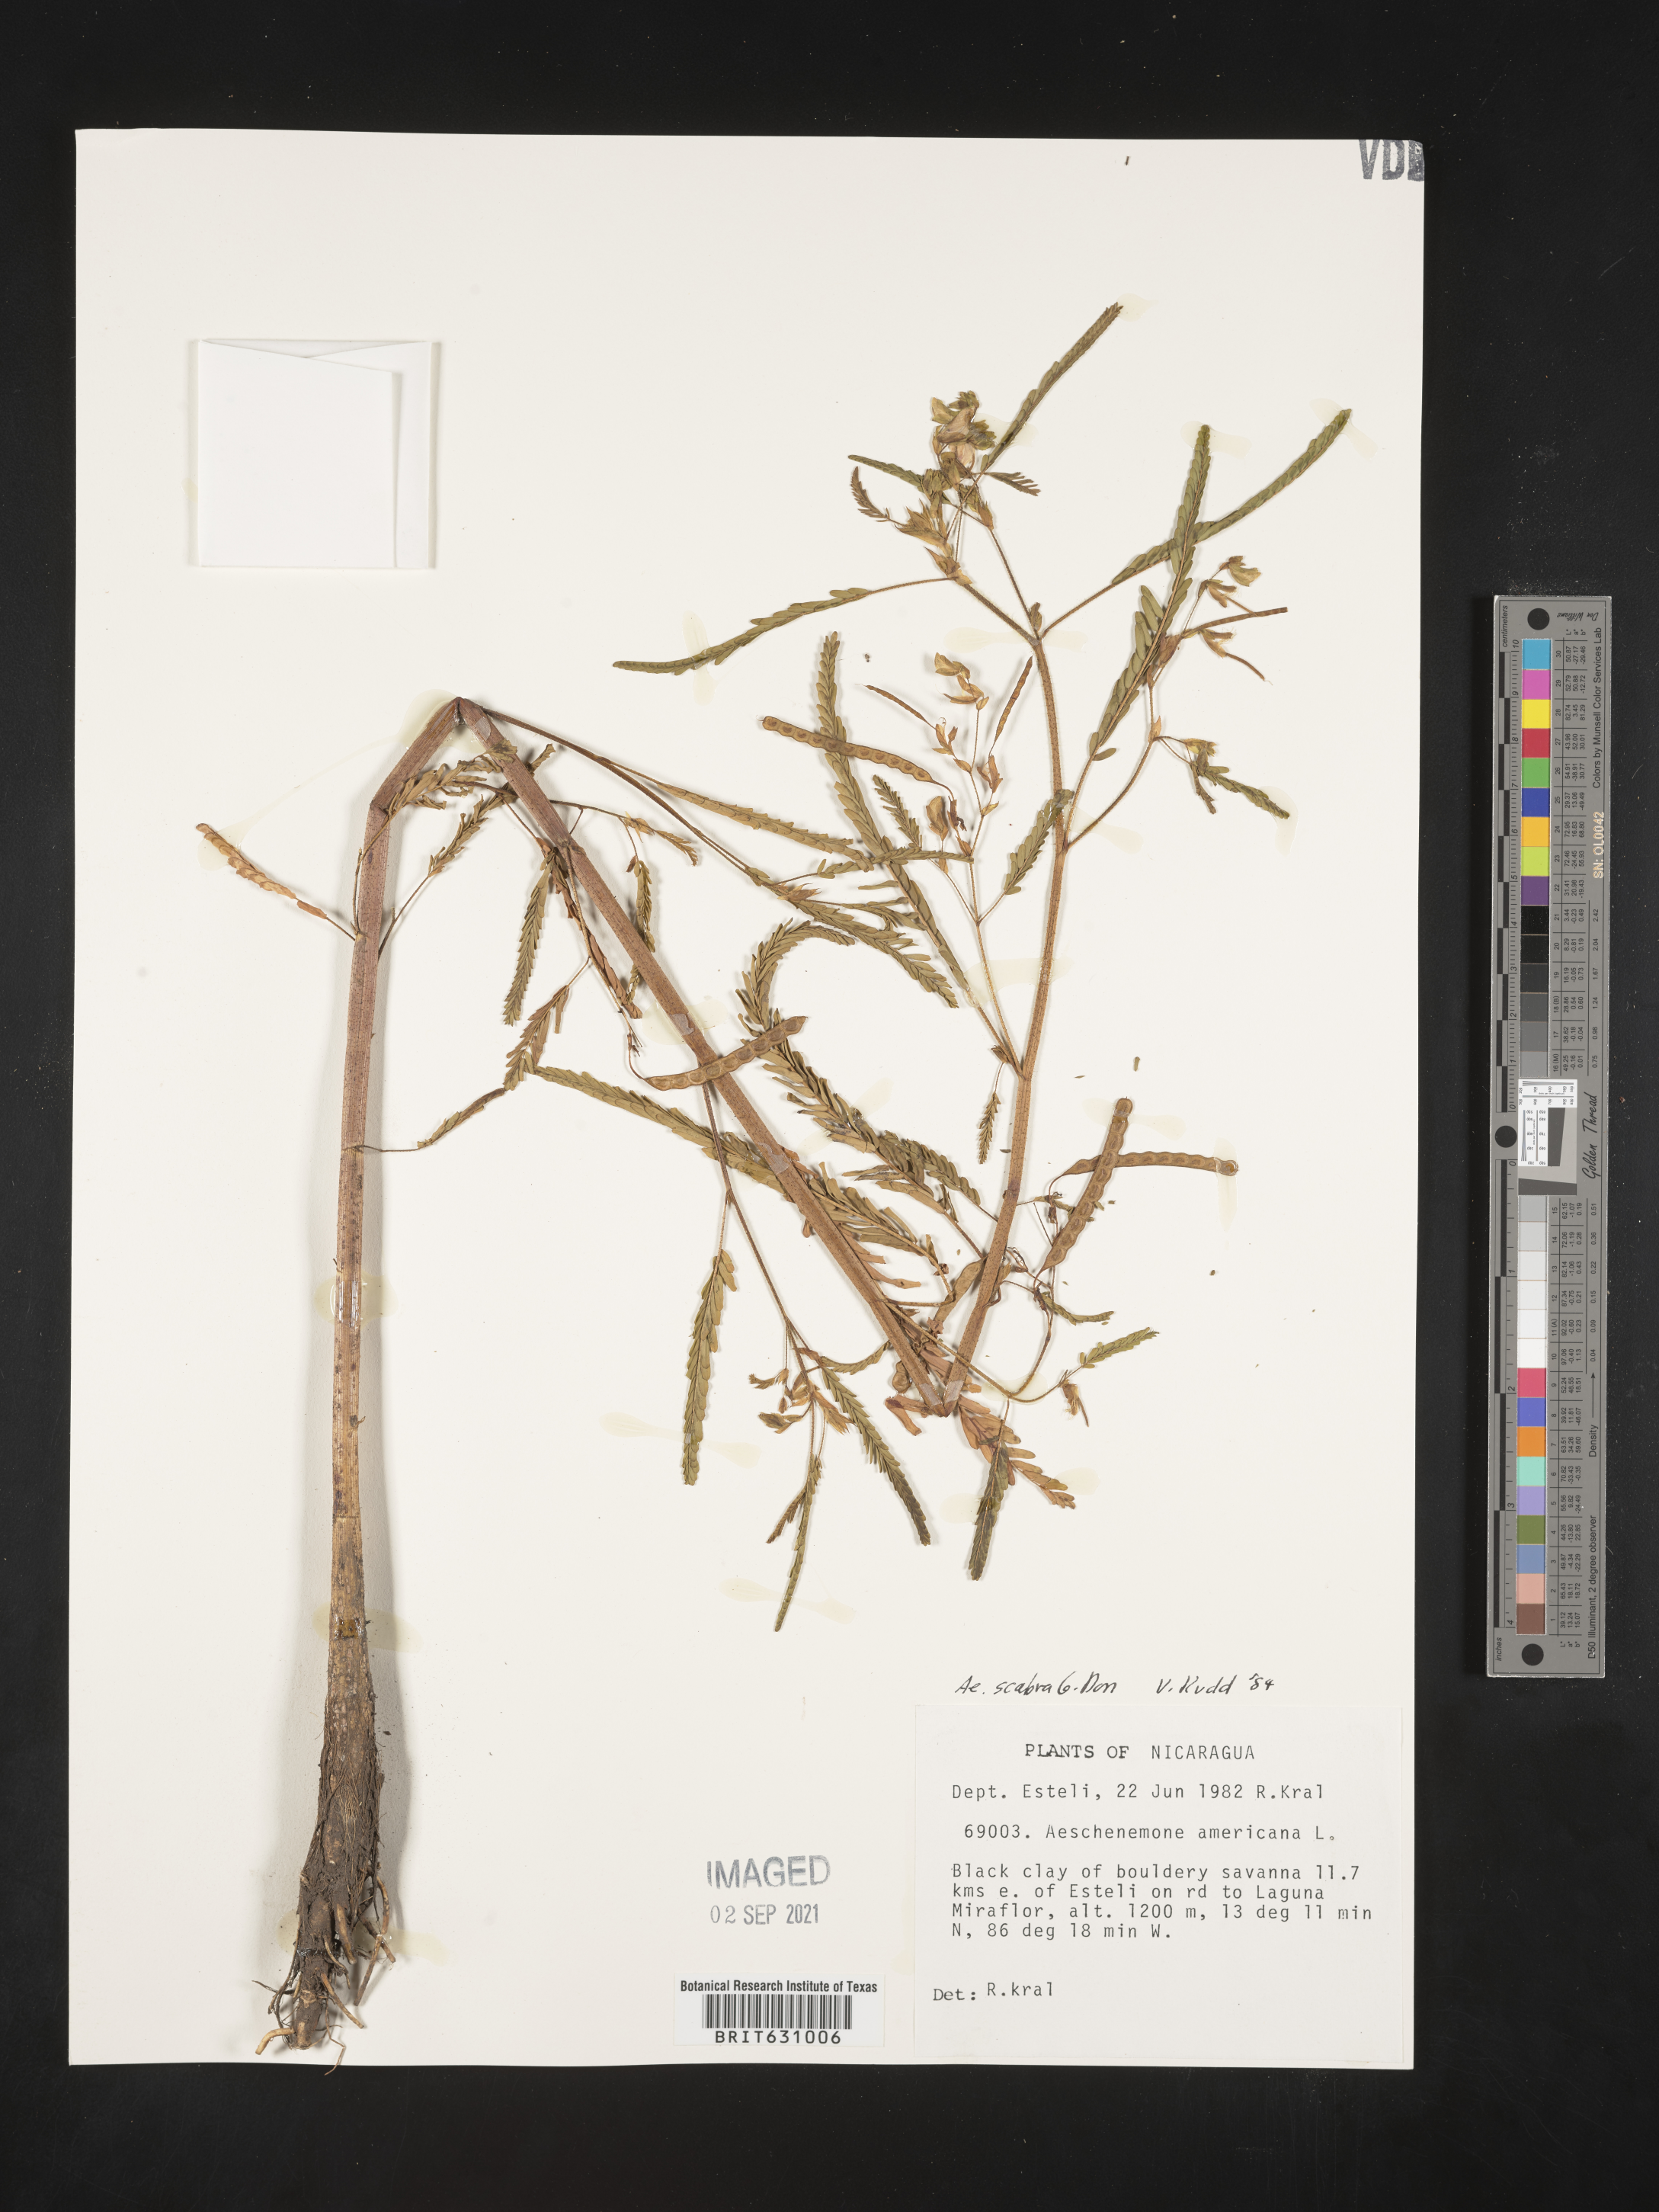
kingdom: Plantae
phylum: Tracheophyta
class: Magnoliopsida
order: Fabales
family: Fabaceae
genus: Aeschynomene
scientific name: Aeschynomene
